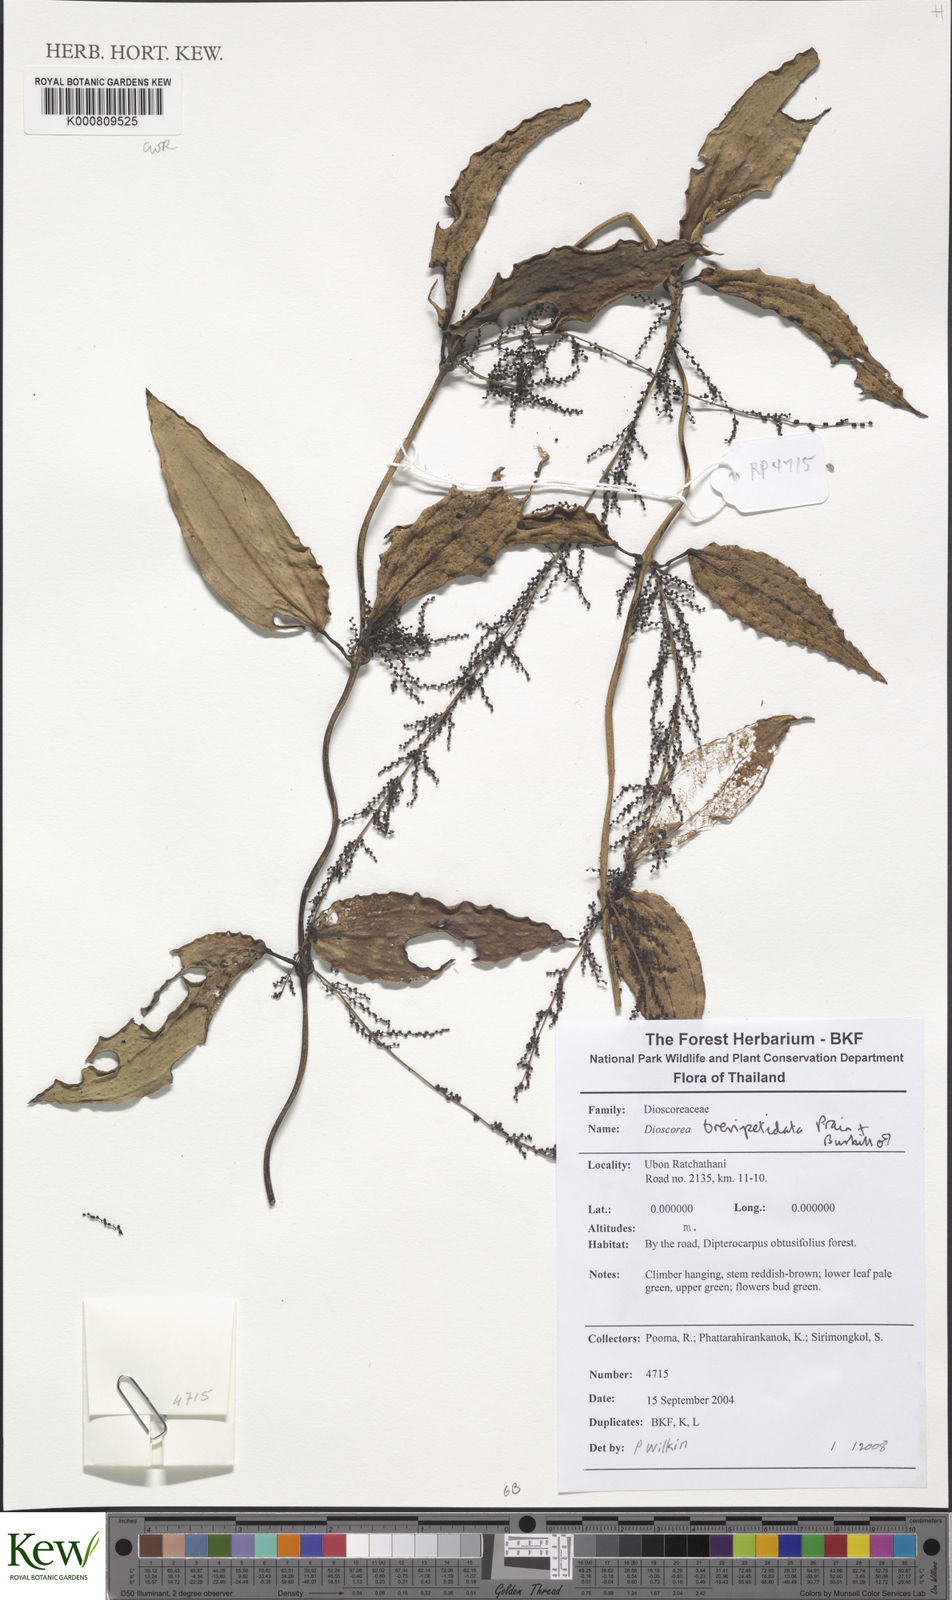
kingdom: Plantae
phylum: Tracheophyta
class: Liliopsida
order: Dioscoreales
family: Dioscoreaceae
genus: Dioscorea
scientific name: Dioscorea brevipetiolata
